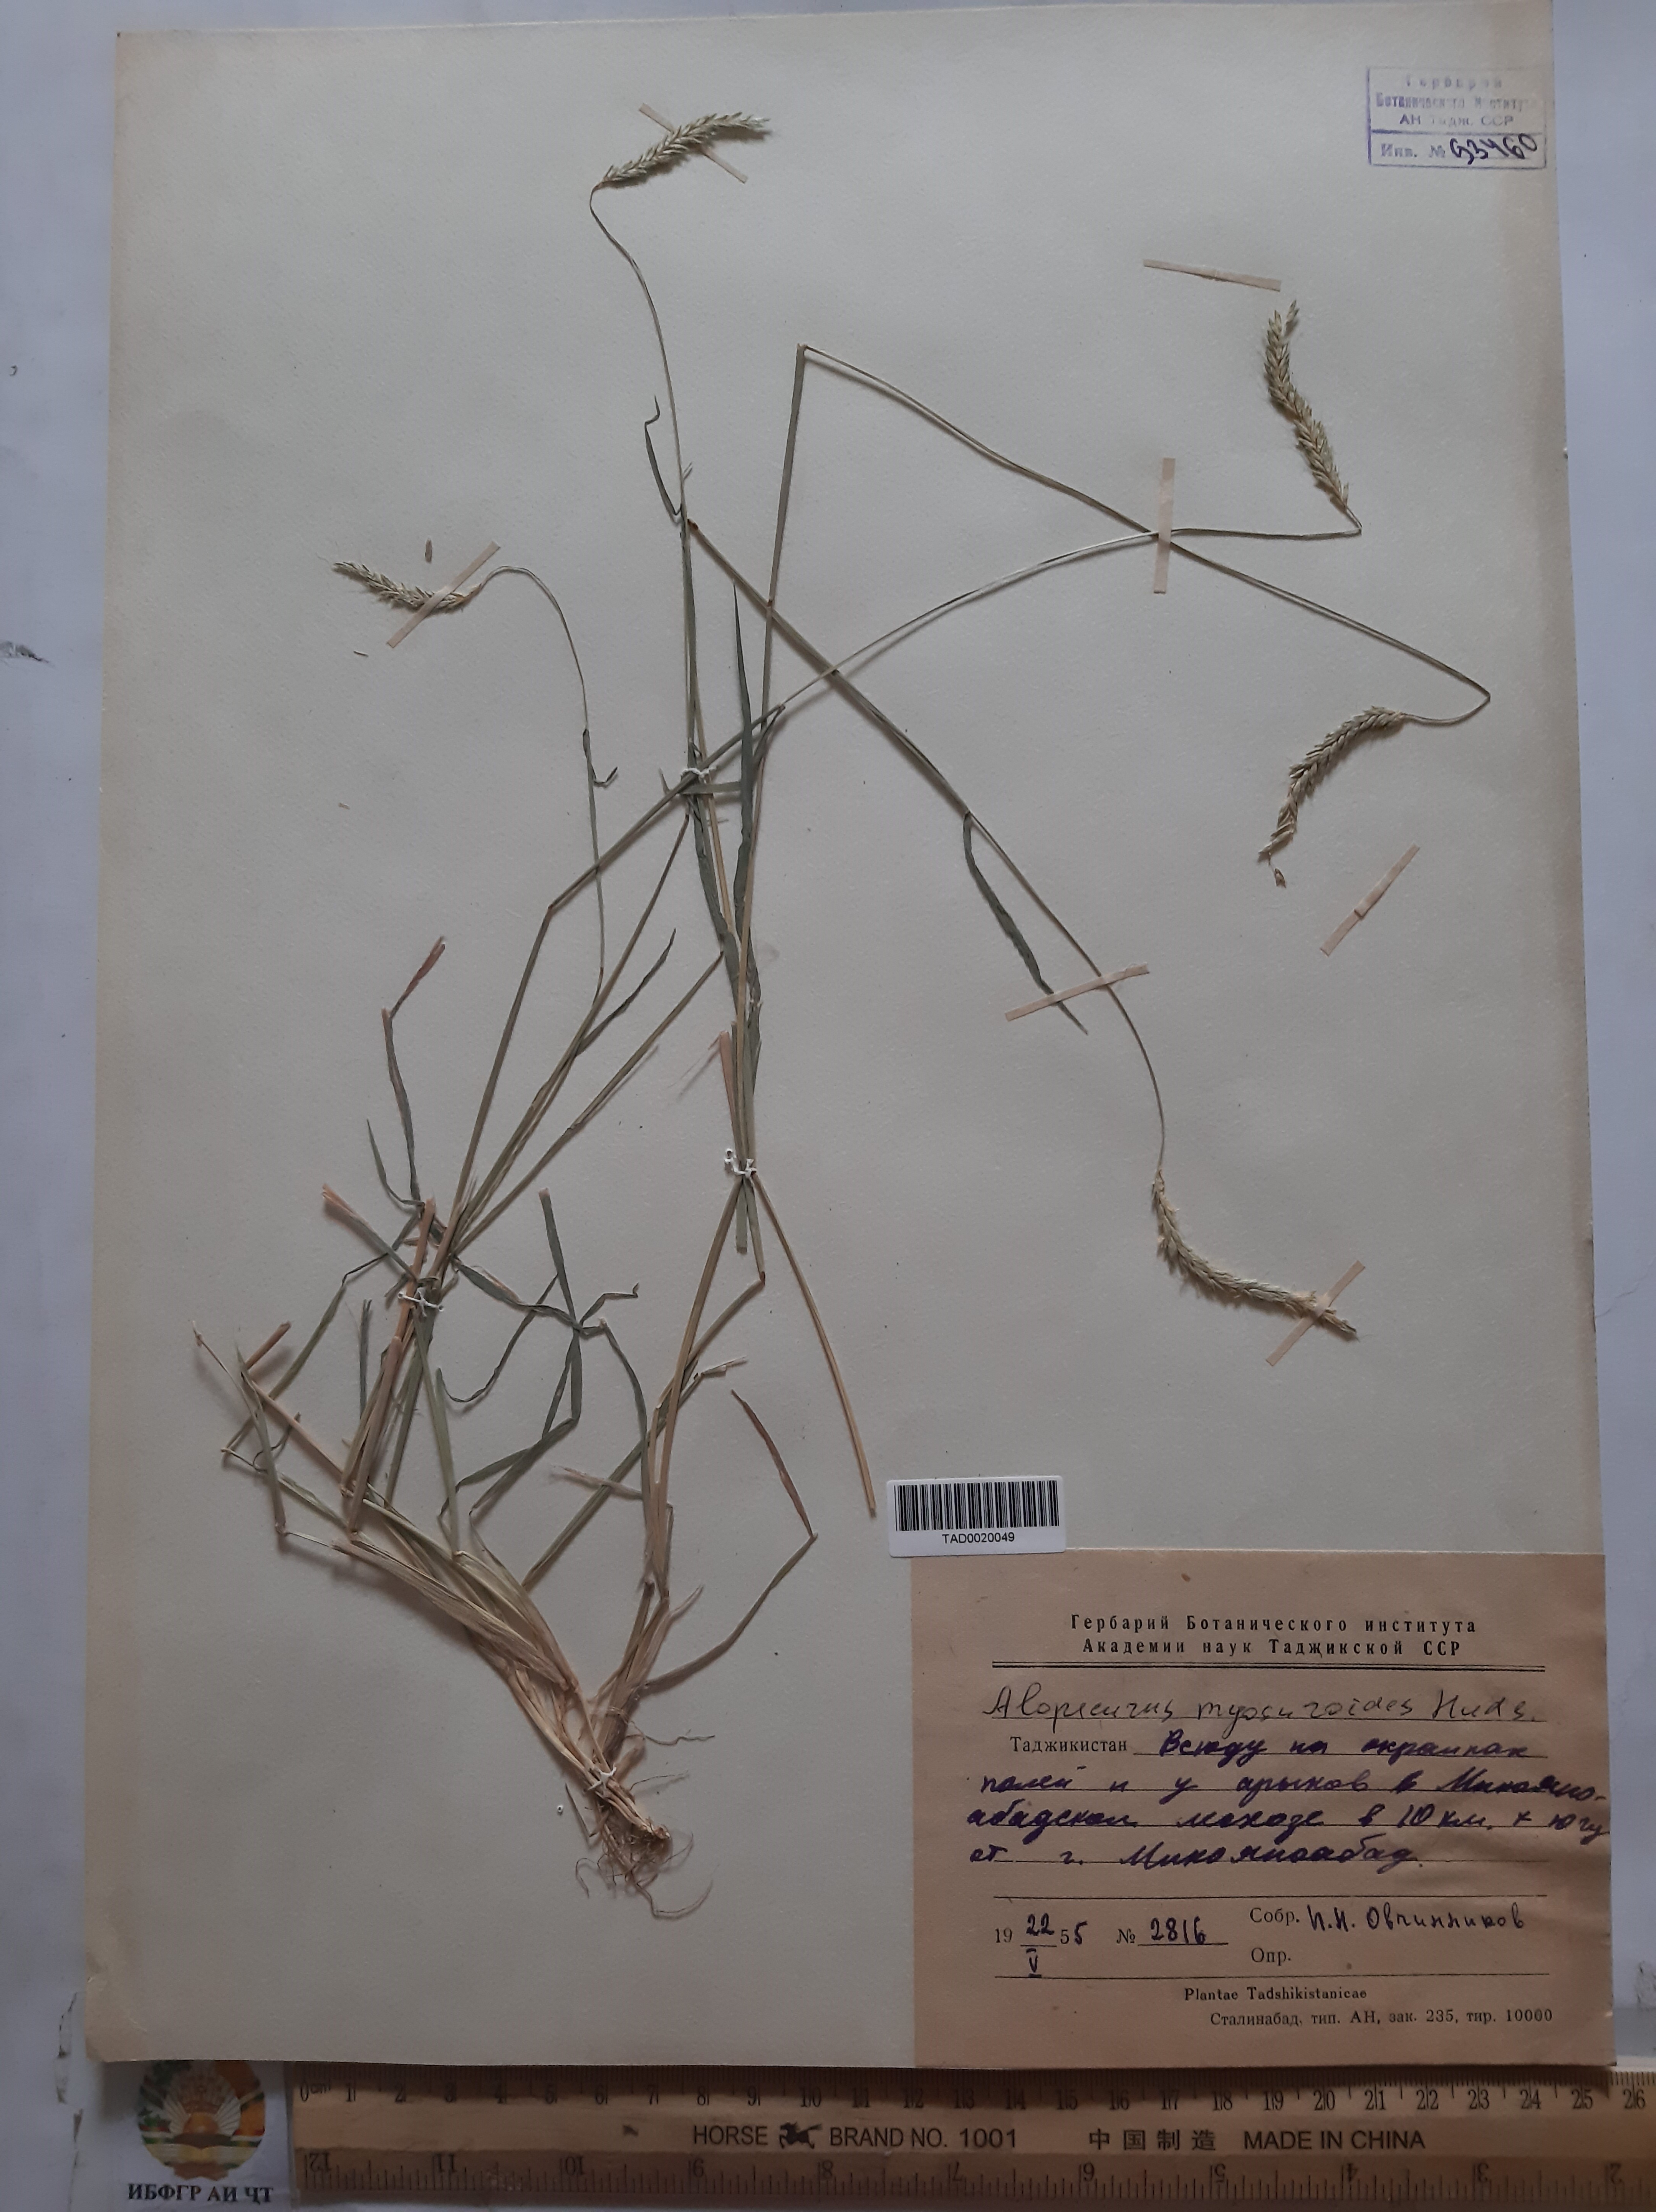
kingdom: Plantae
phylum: Tracheophyta
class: Liliopsida
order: Poales
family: Poaceae
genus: Alopecurus
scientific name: Alopecurus myosuroides
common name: Black-grass
